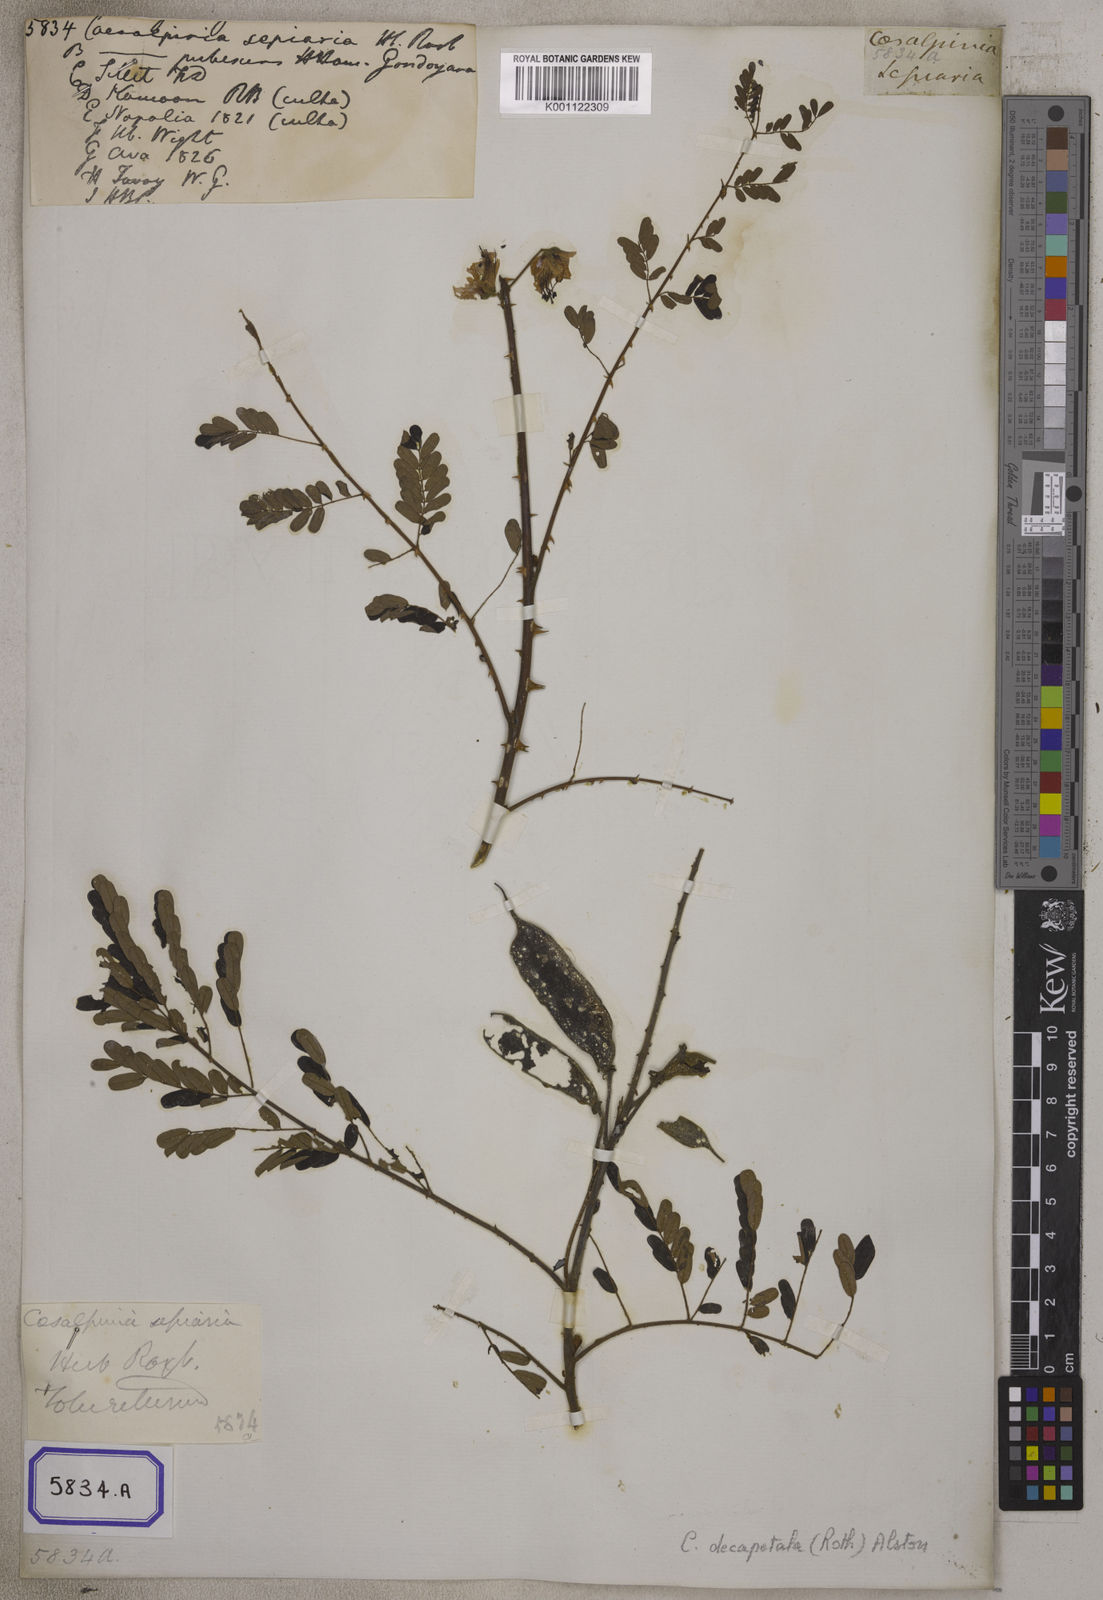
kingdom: Plantae
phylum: Tracheophyta
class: Magnoliopsida
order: Fabales
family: Fabaceae
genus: Caesalpinia
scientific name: Caesalpinia
